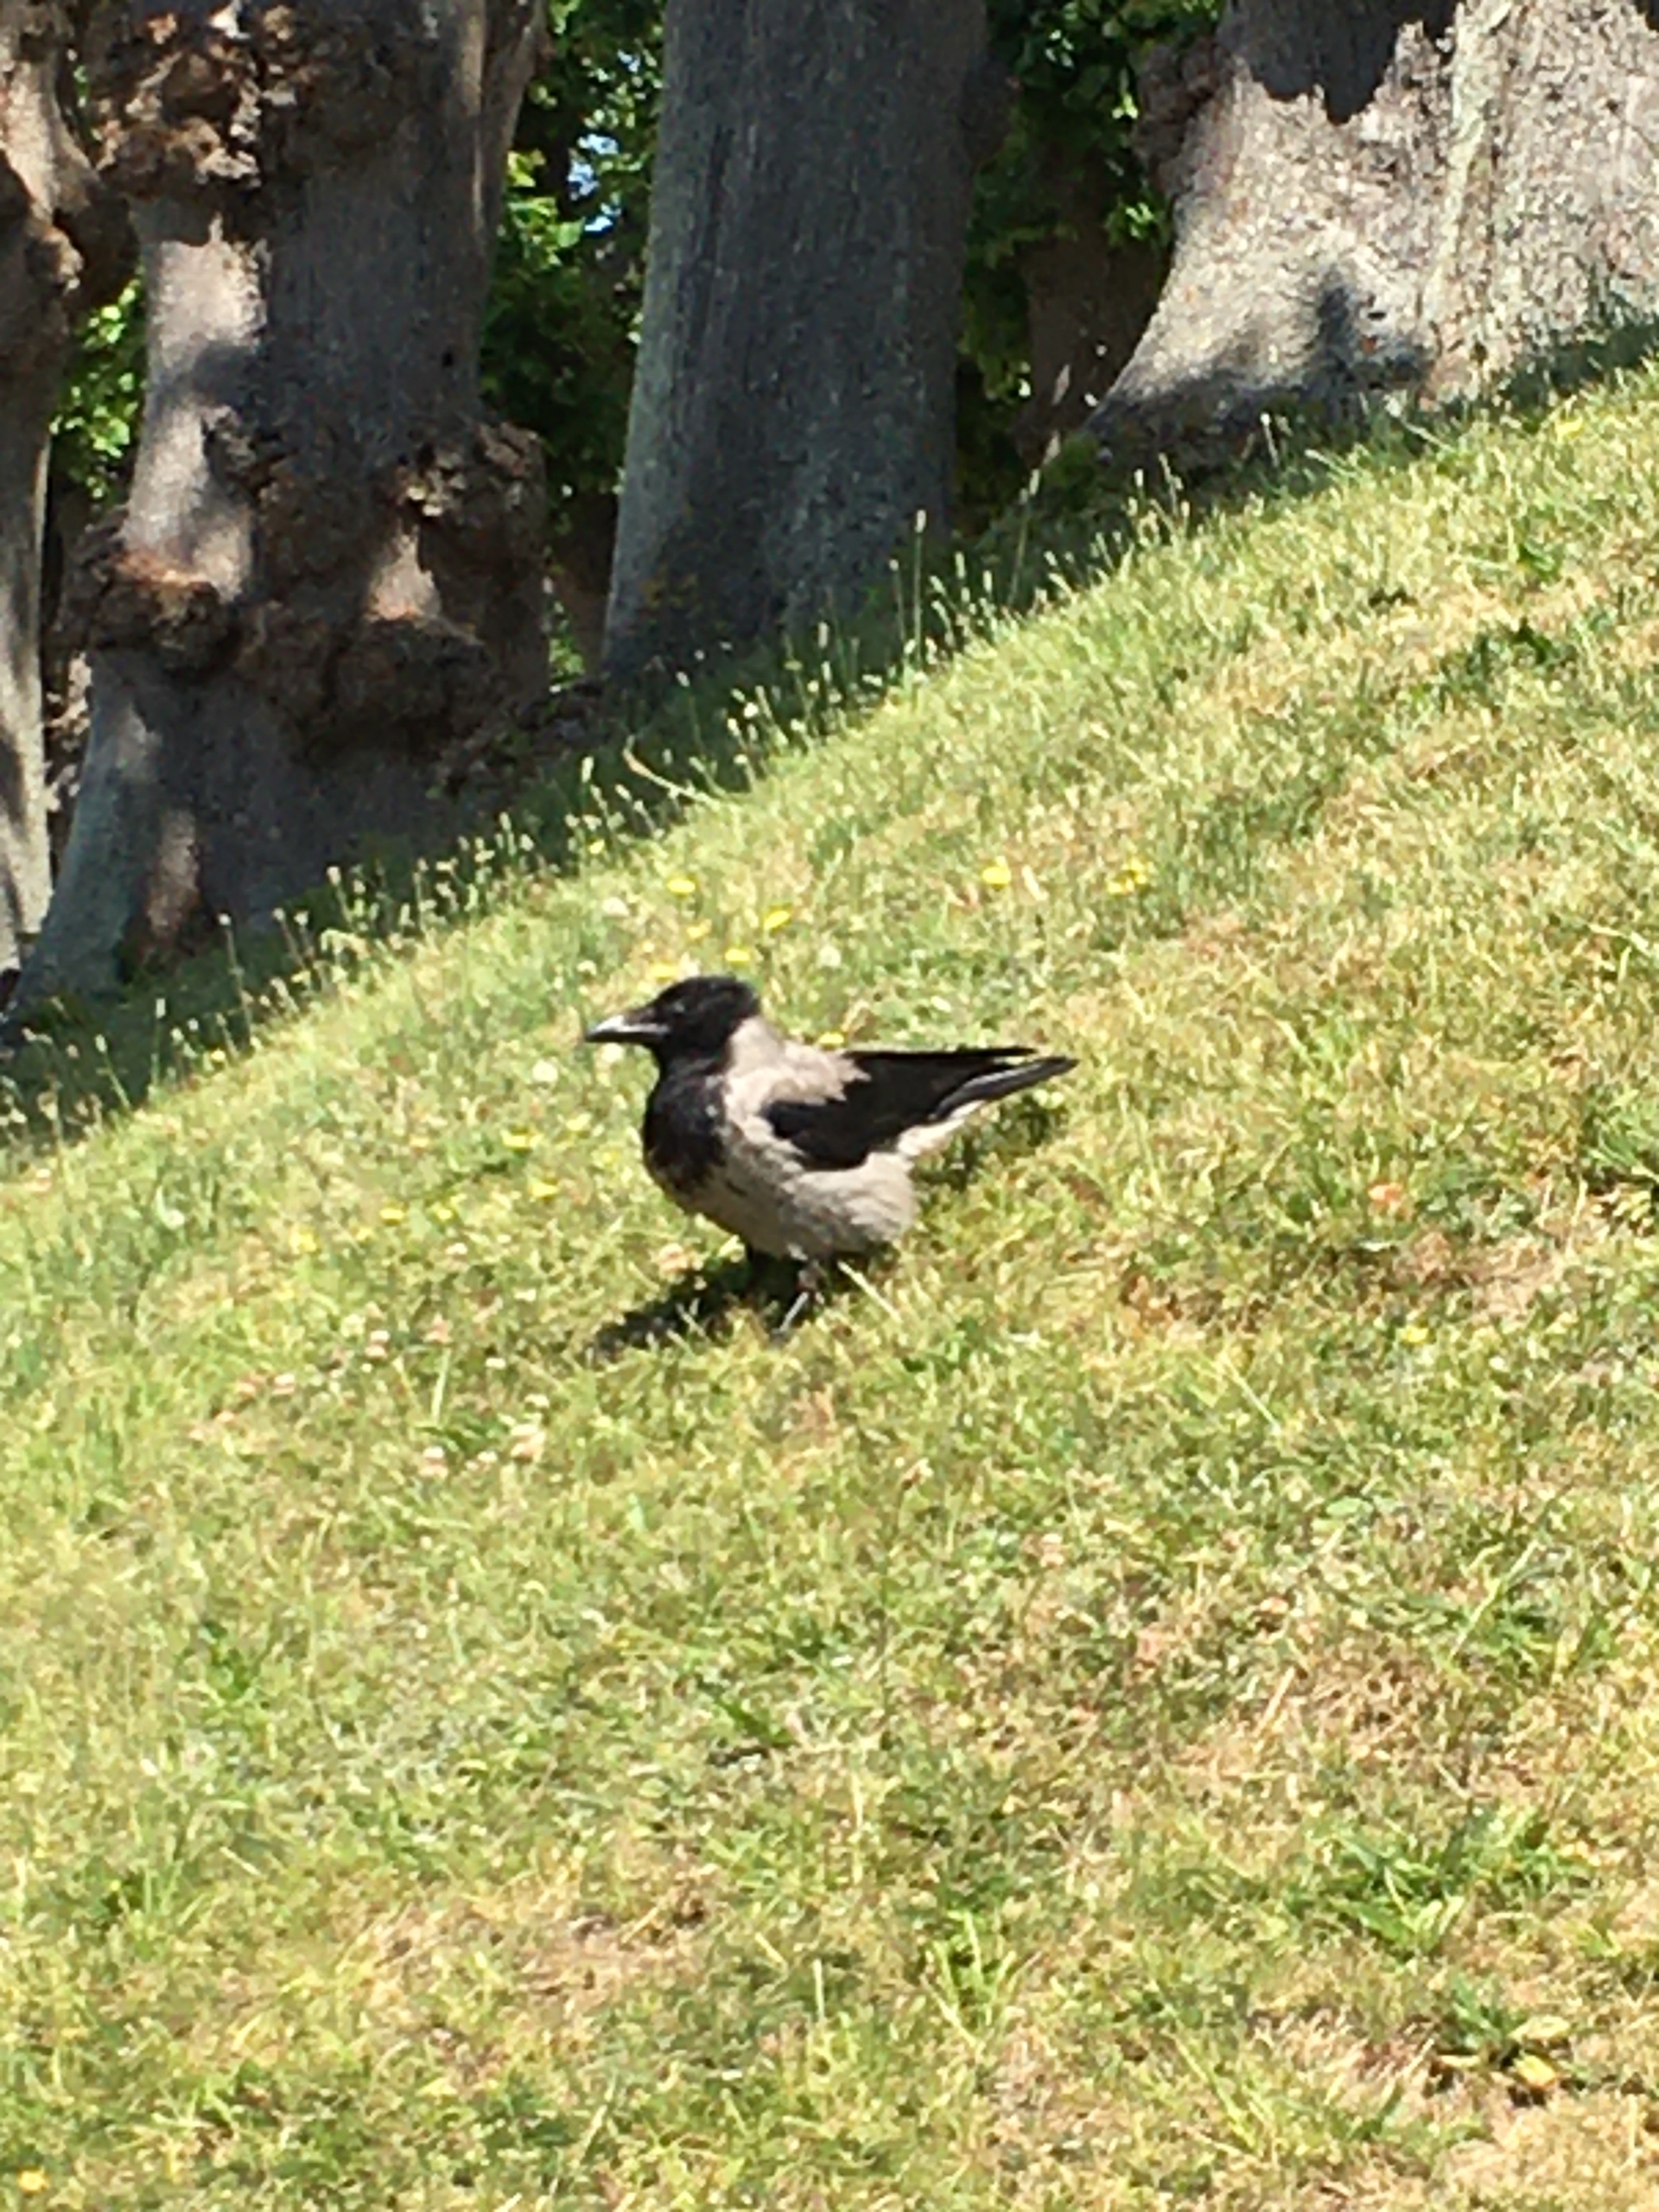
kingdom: Animalia
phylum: Chordata
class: Aves
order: Passeriformes
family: Corvidae
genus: Corvus
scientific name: Corvus cornix
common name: Gråkrage
